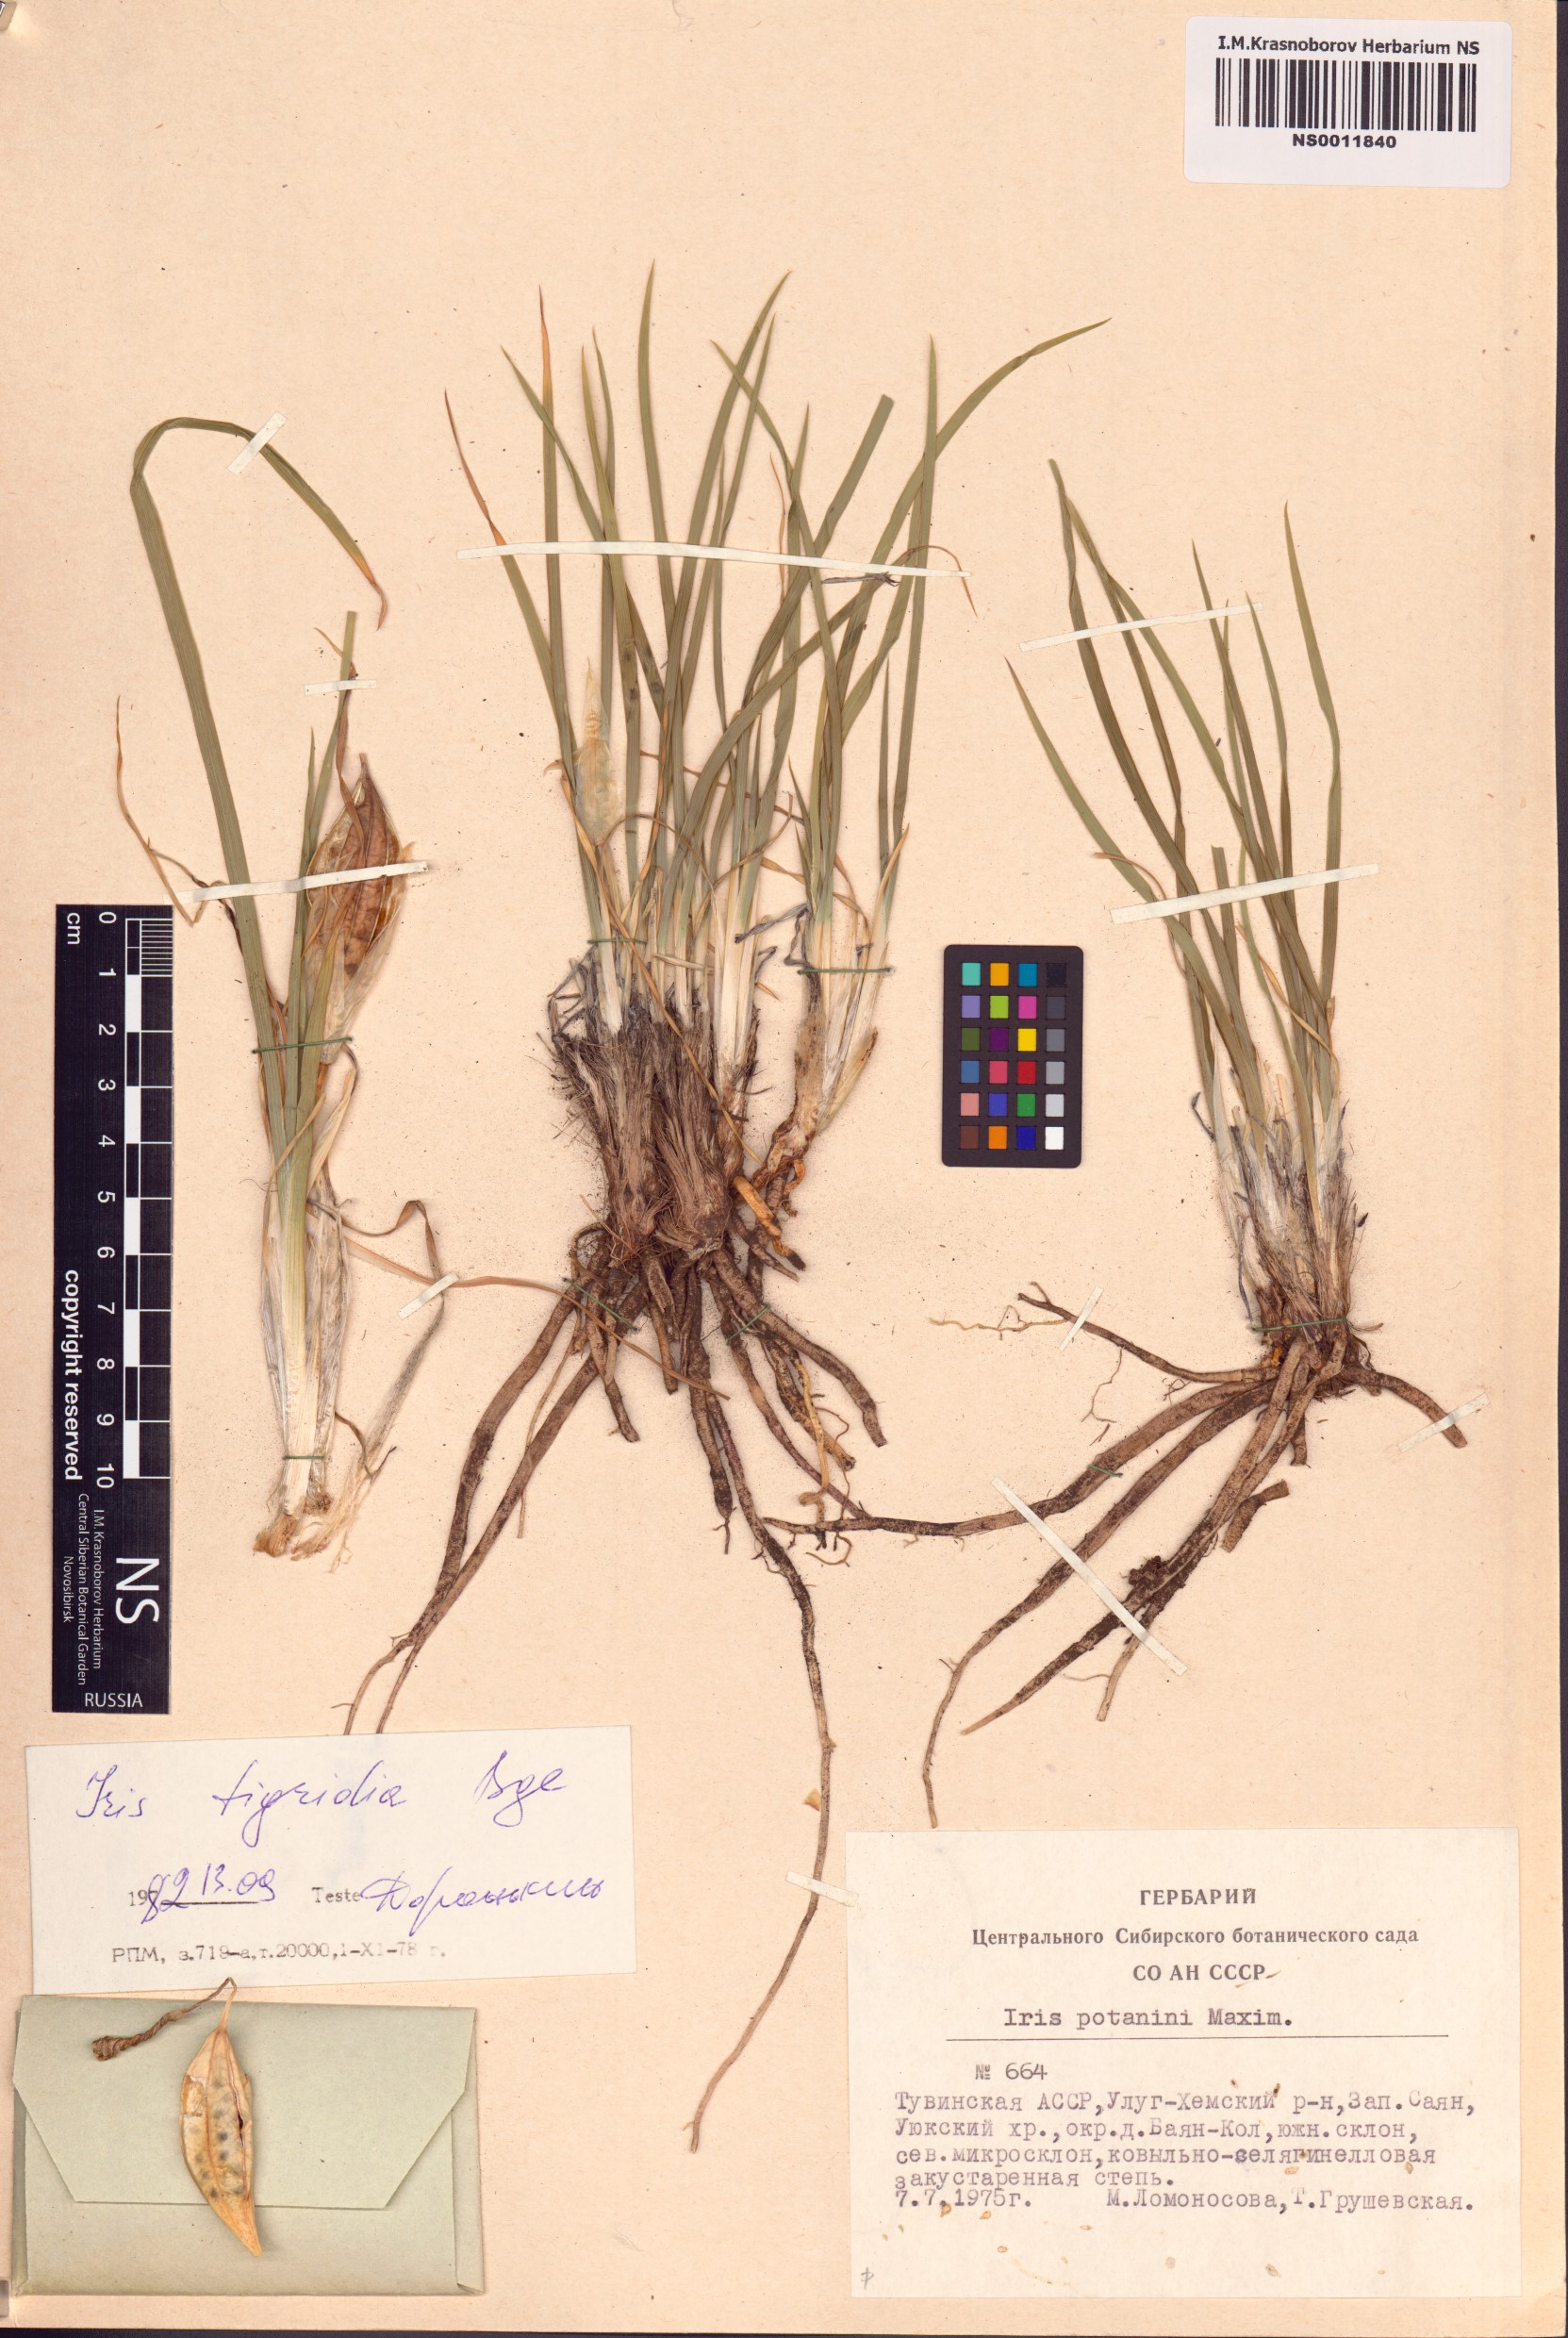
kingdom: Plantae
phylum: Tracheophyta
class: Liliopsida
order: Asparagales
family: Iridaceae
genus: Iris
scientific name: Iris tigridia
